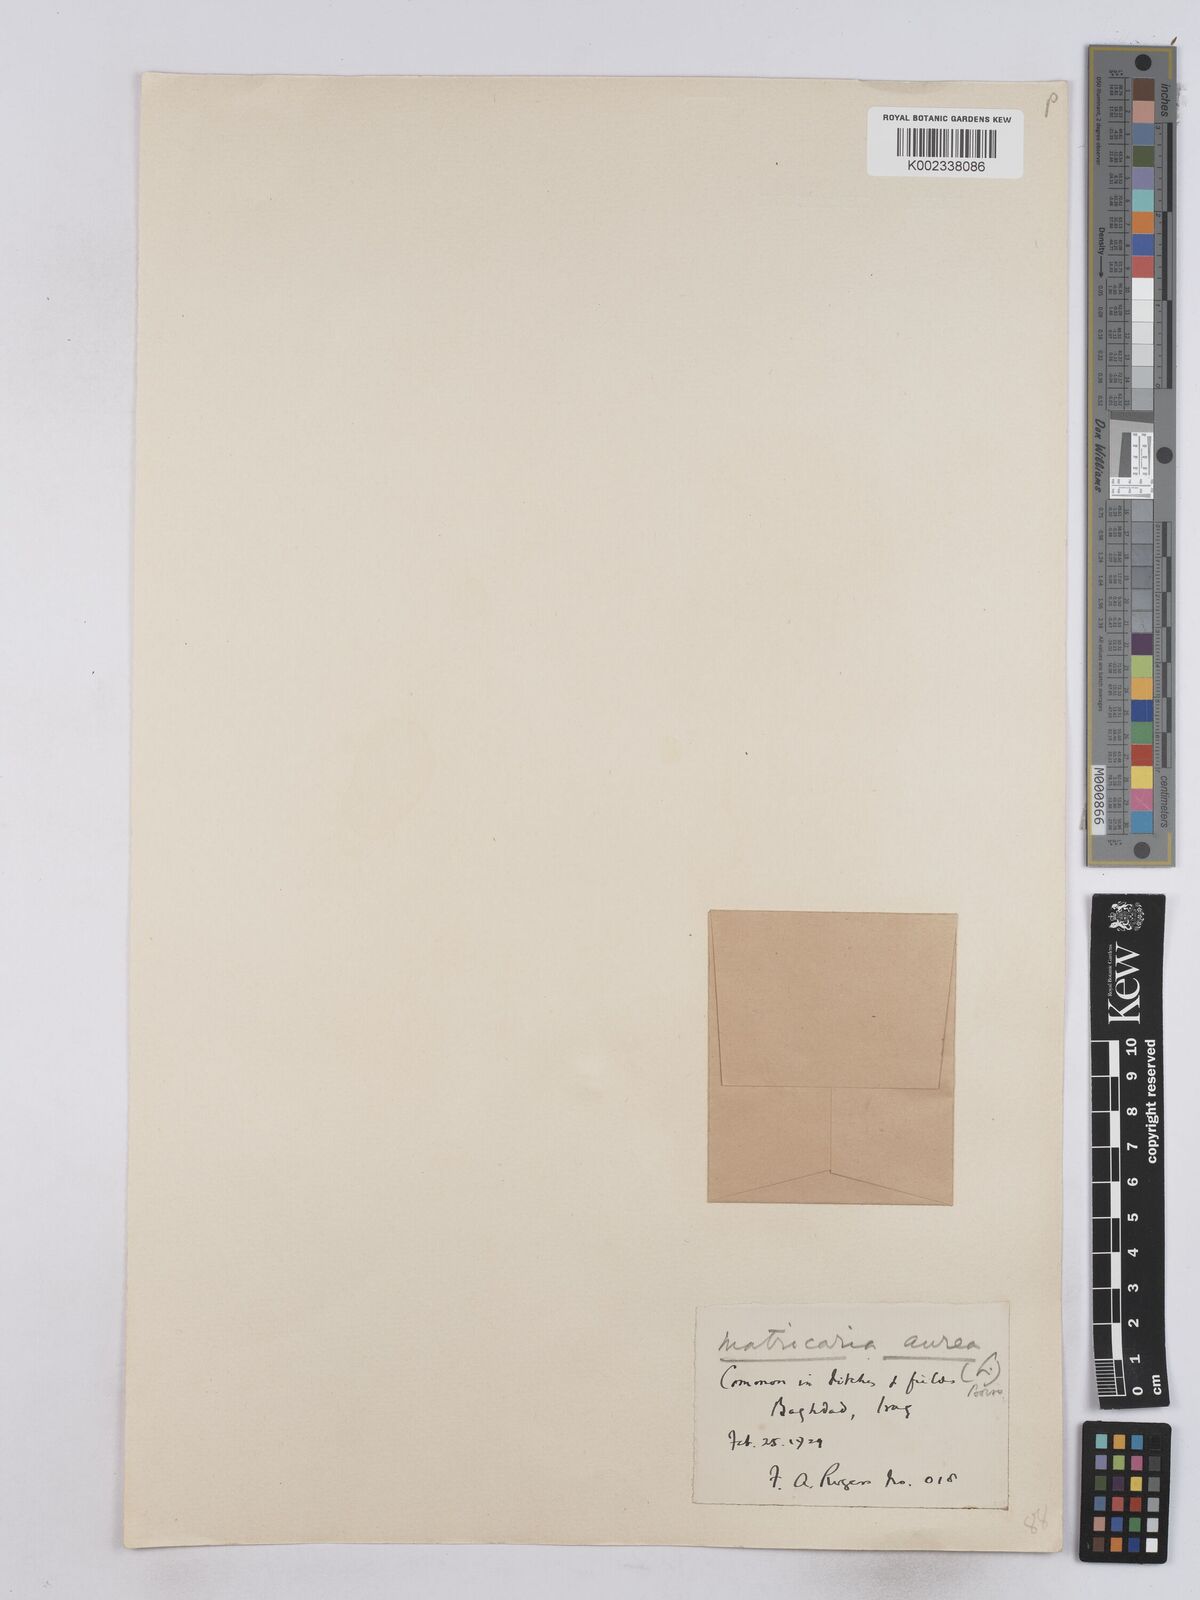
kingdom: Plantae
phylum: Tracheophyta
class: Magnoliopsida
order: Asterales
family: Asteraceae
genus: Matricaria
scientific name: Matricaria aurea
